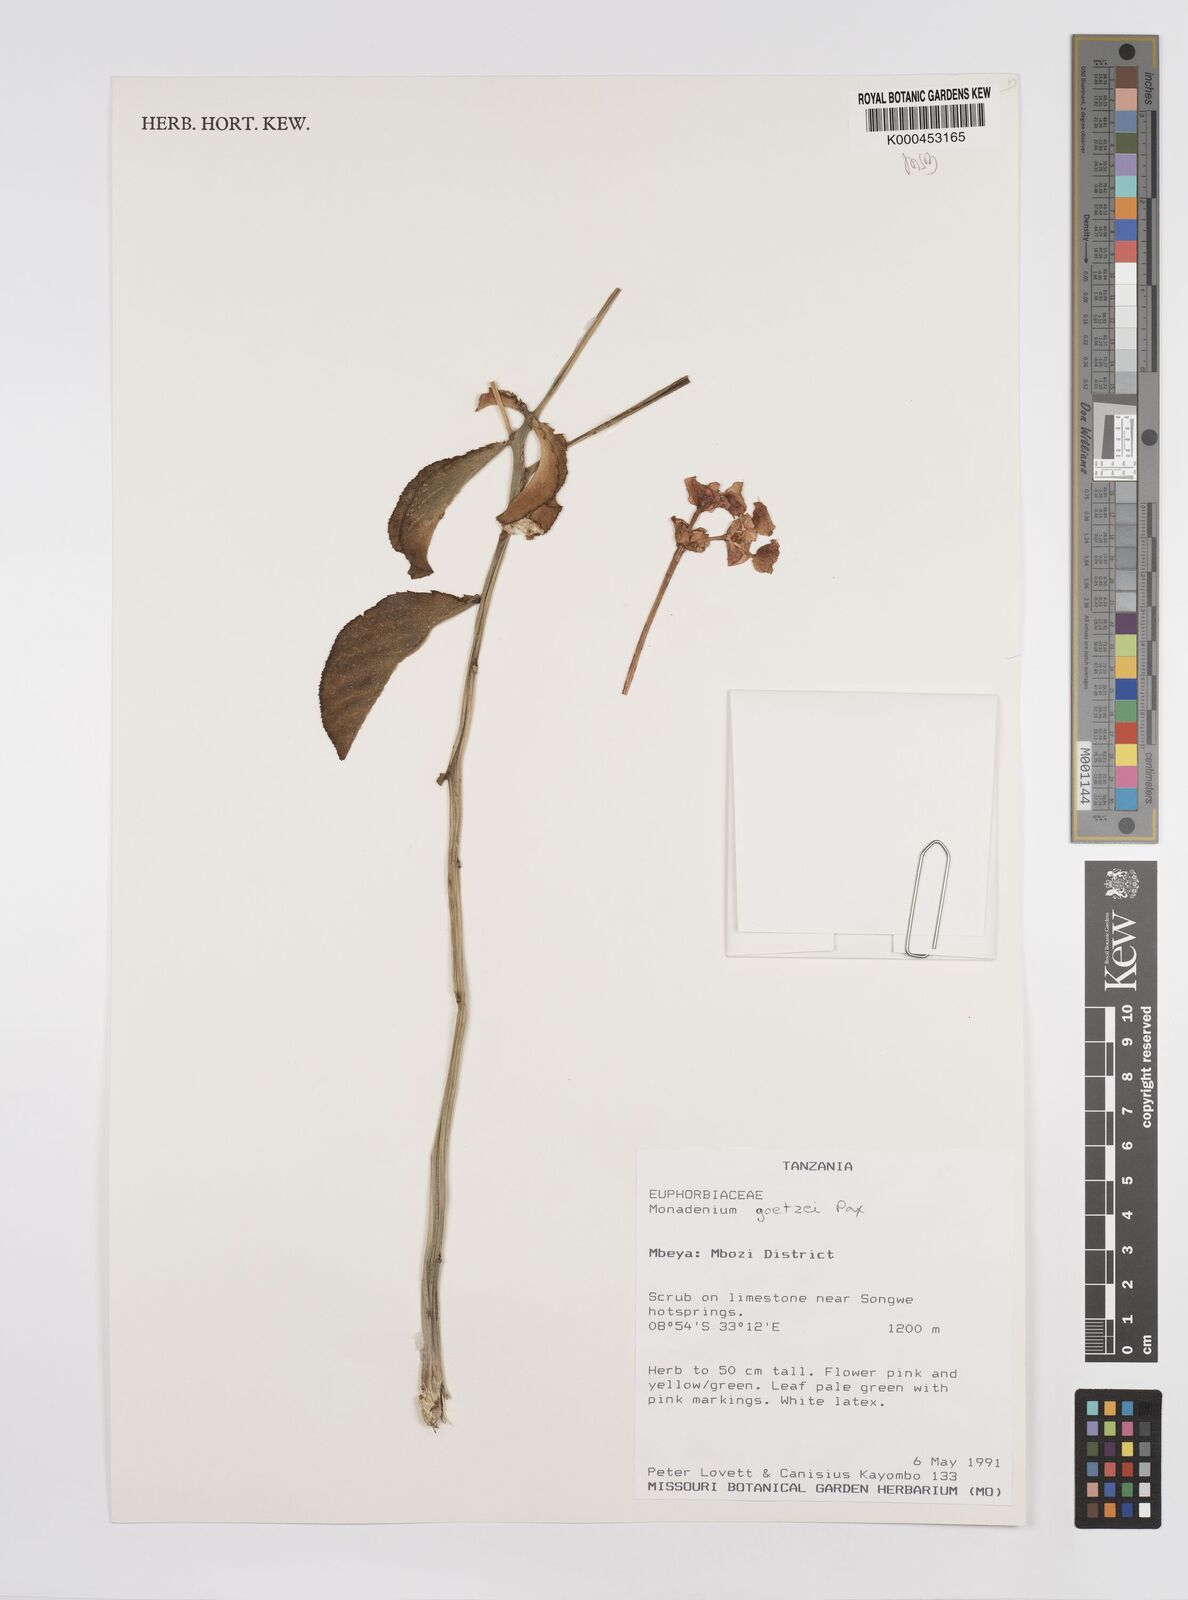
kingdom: Plantae
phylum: Tracheophyta
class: Magnoliopsida
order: Malpighiales
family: Euphorbiaceae
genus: Euphorbia
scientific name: Euphorbia neogoetzei
